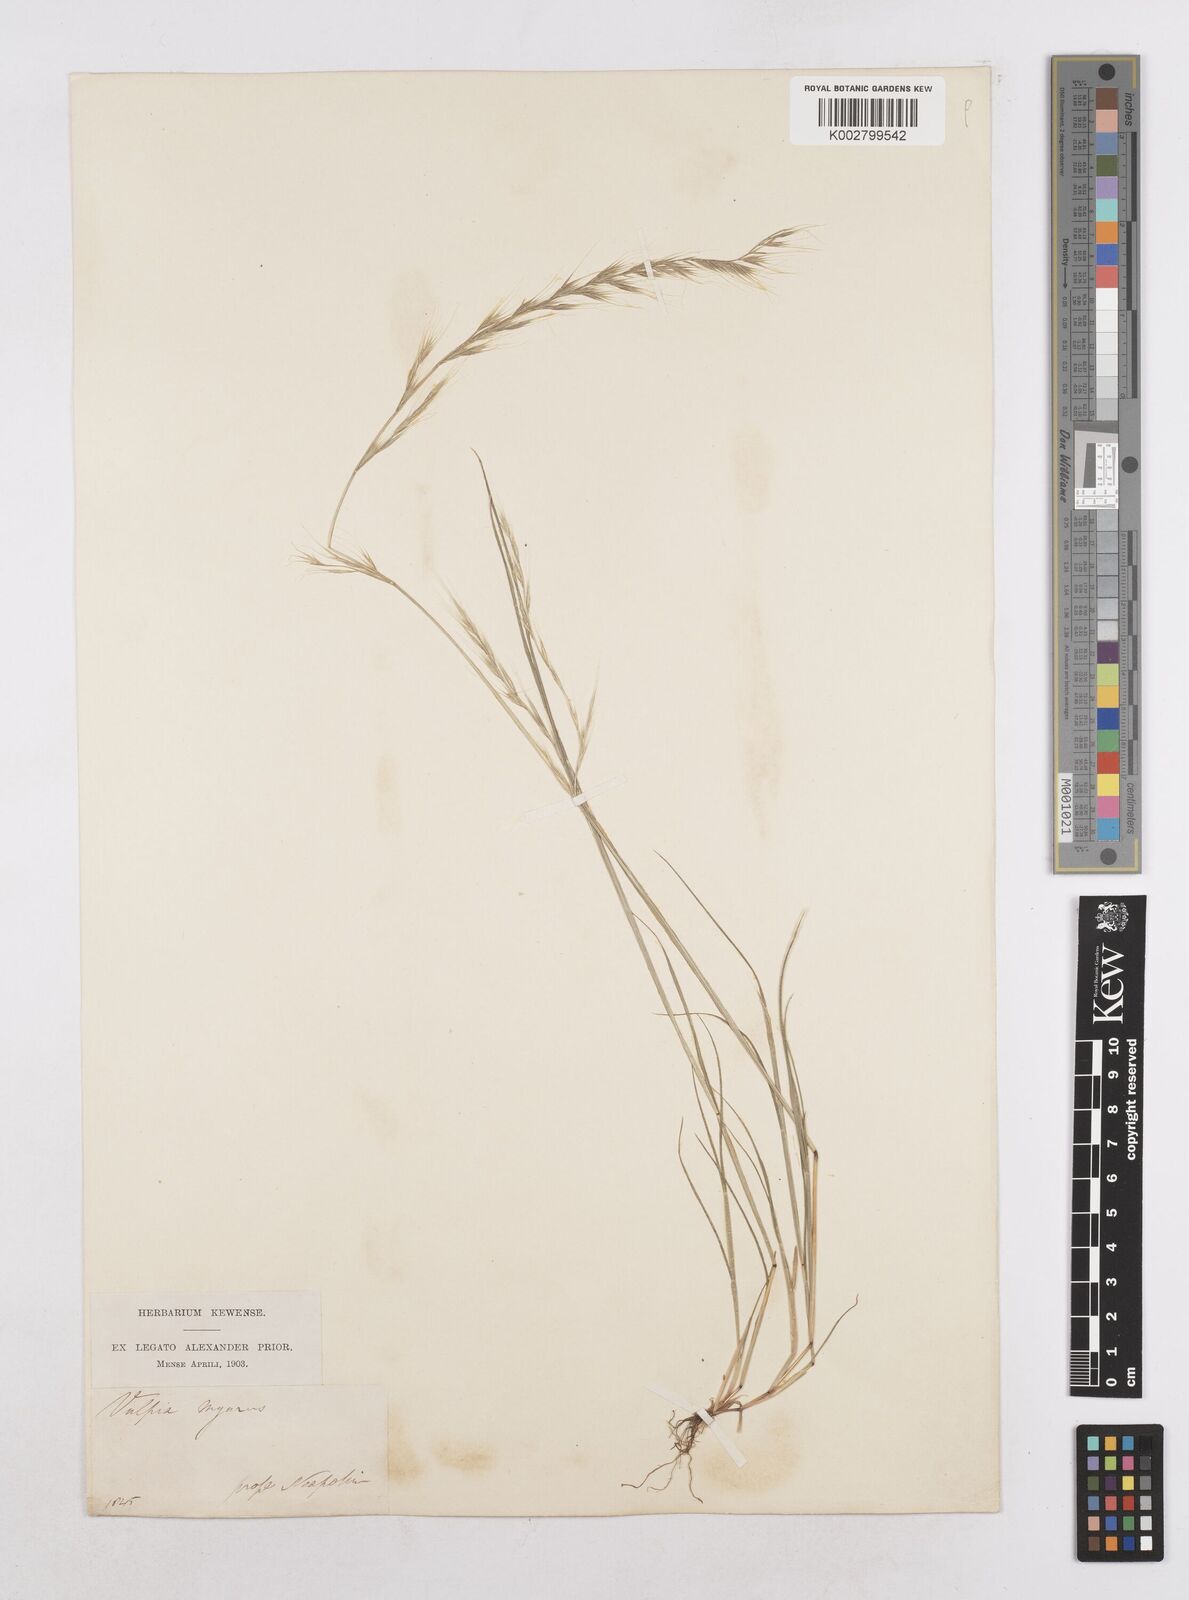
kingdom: Plantae
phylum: Tracheophyta
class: Liliopsida
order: Poales
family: Poaceae
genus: Festuca
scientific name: Festuca myuros
